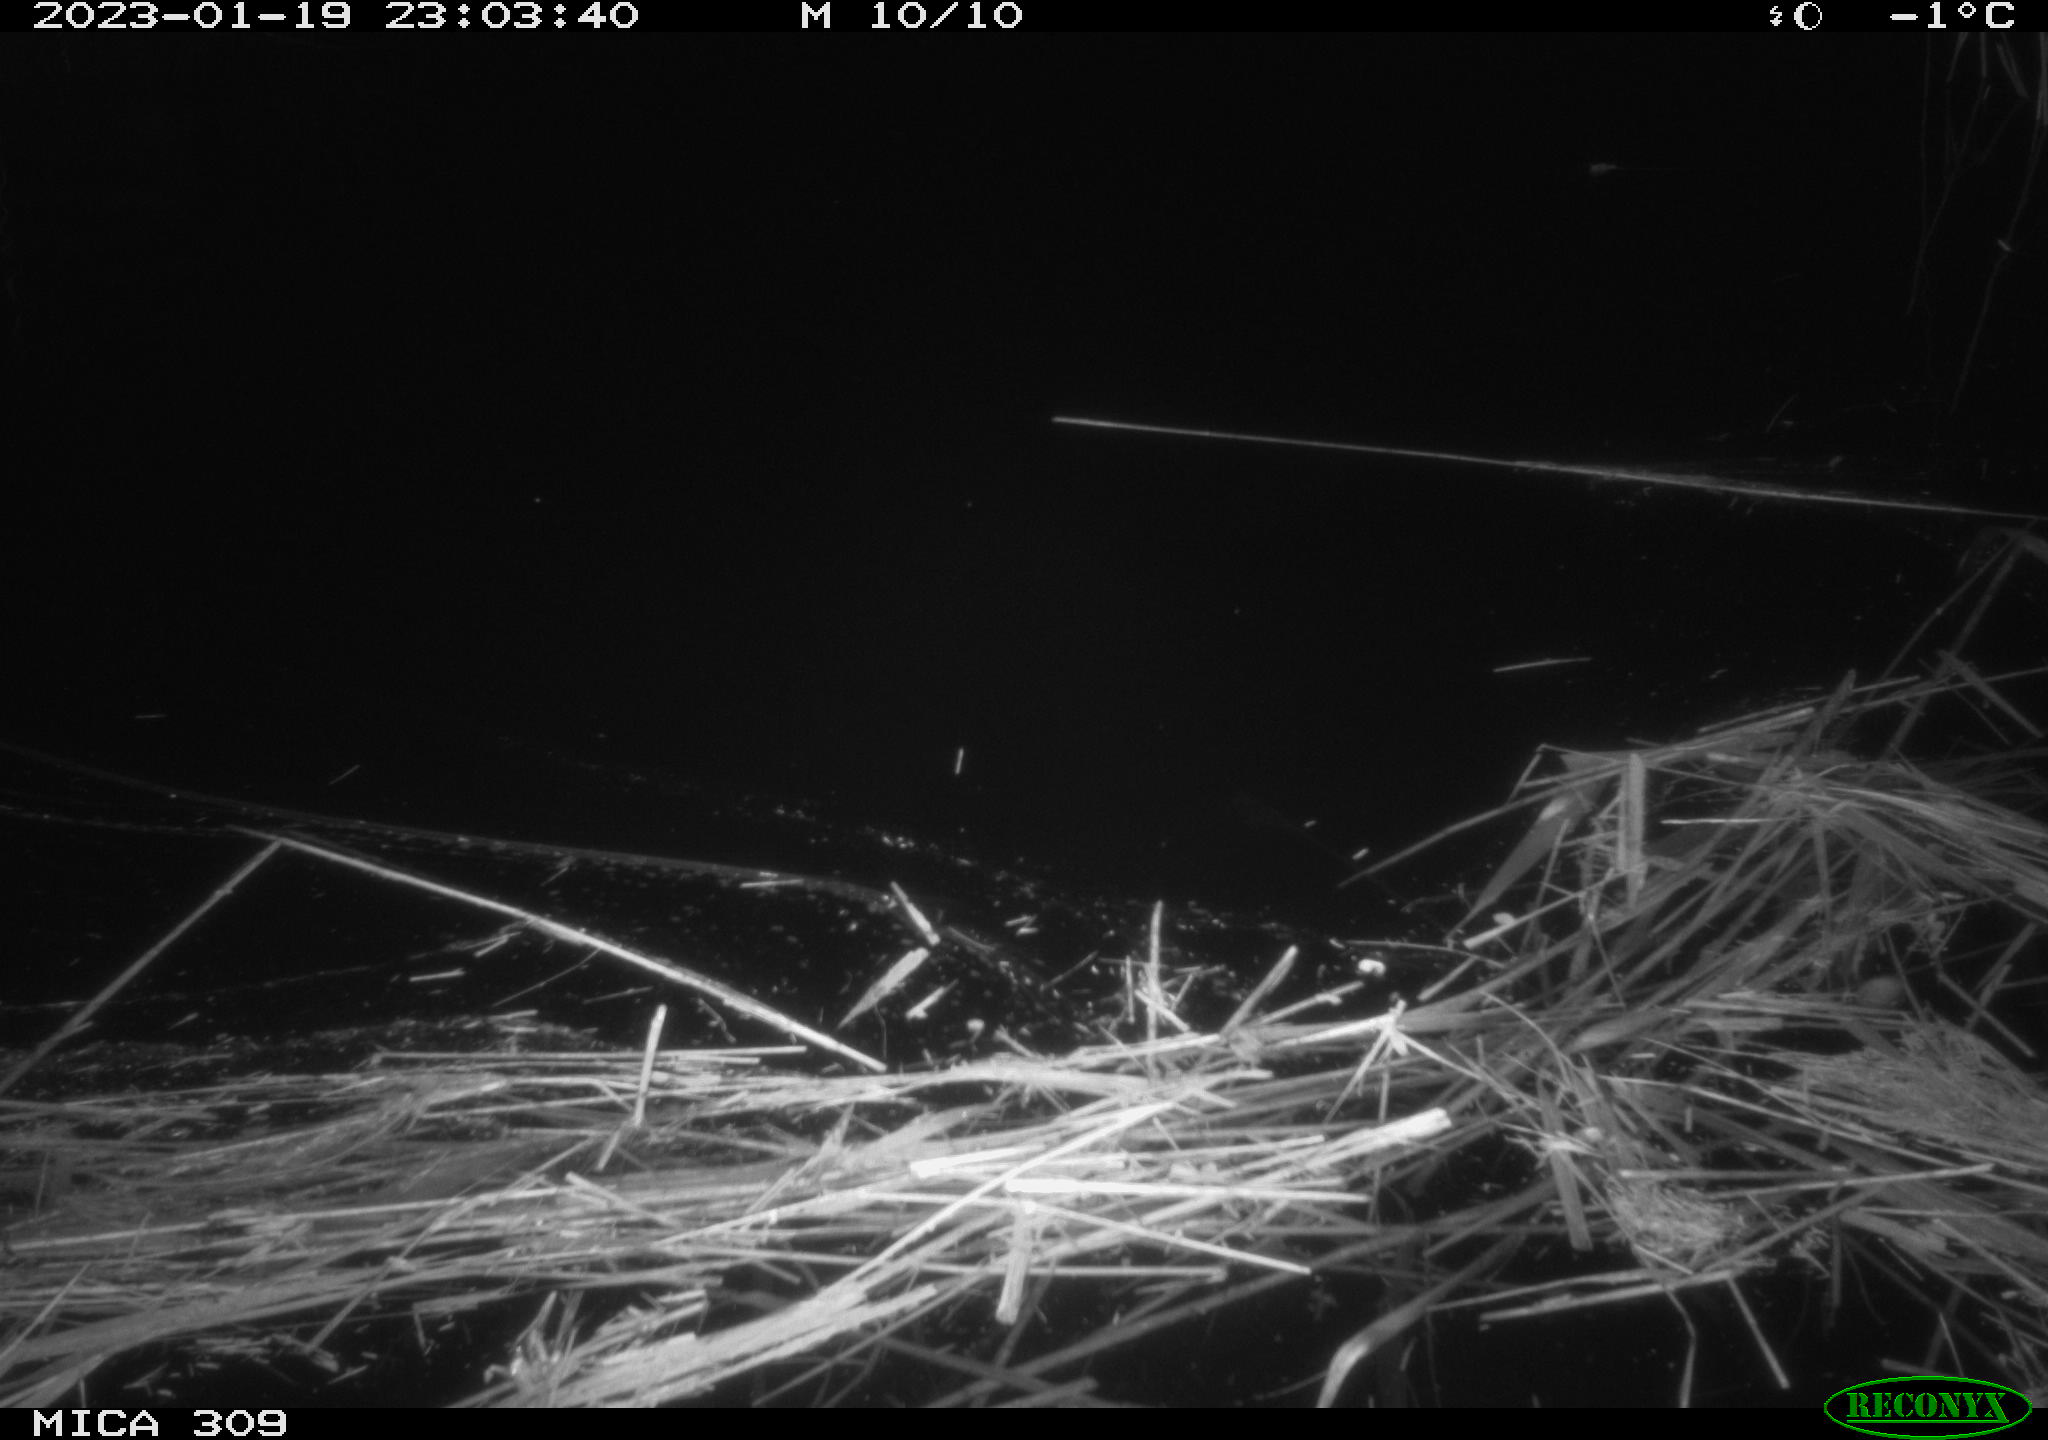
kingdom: Animalia
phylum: Chordata
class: Mammalia
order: Rodentia
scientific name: Rodentia
